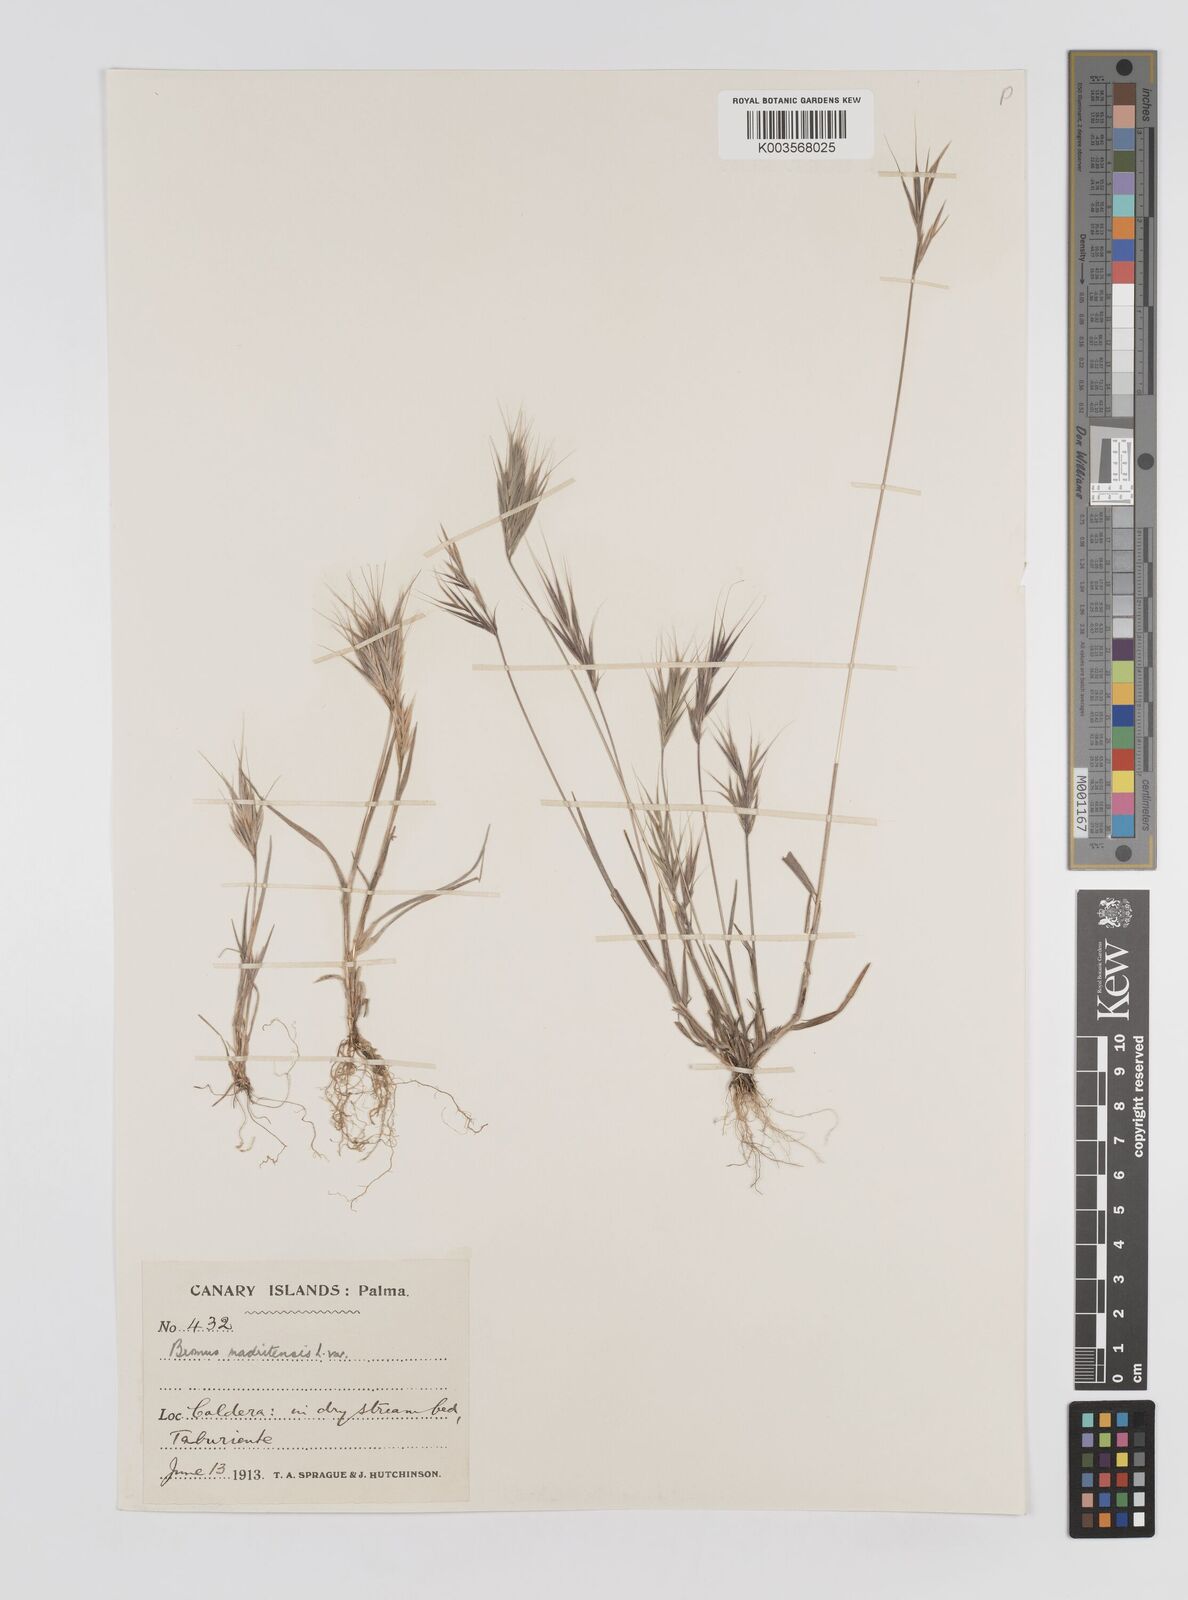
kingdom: Plantae
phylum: Tracheophyta
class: Liliopsida
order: Poales
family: Poaceae
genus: Bromus
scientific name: Bromus
